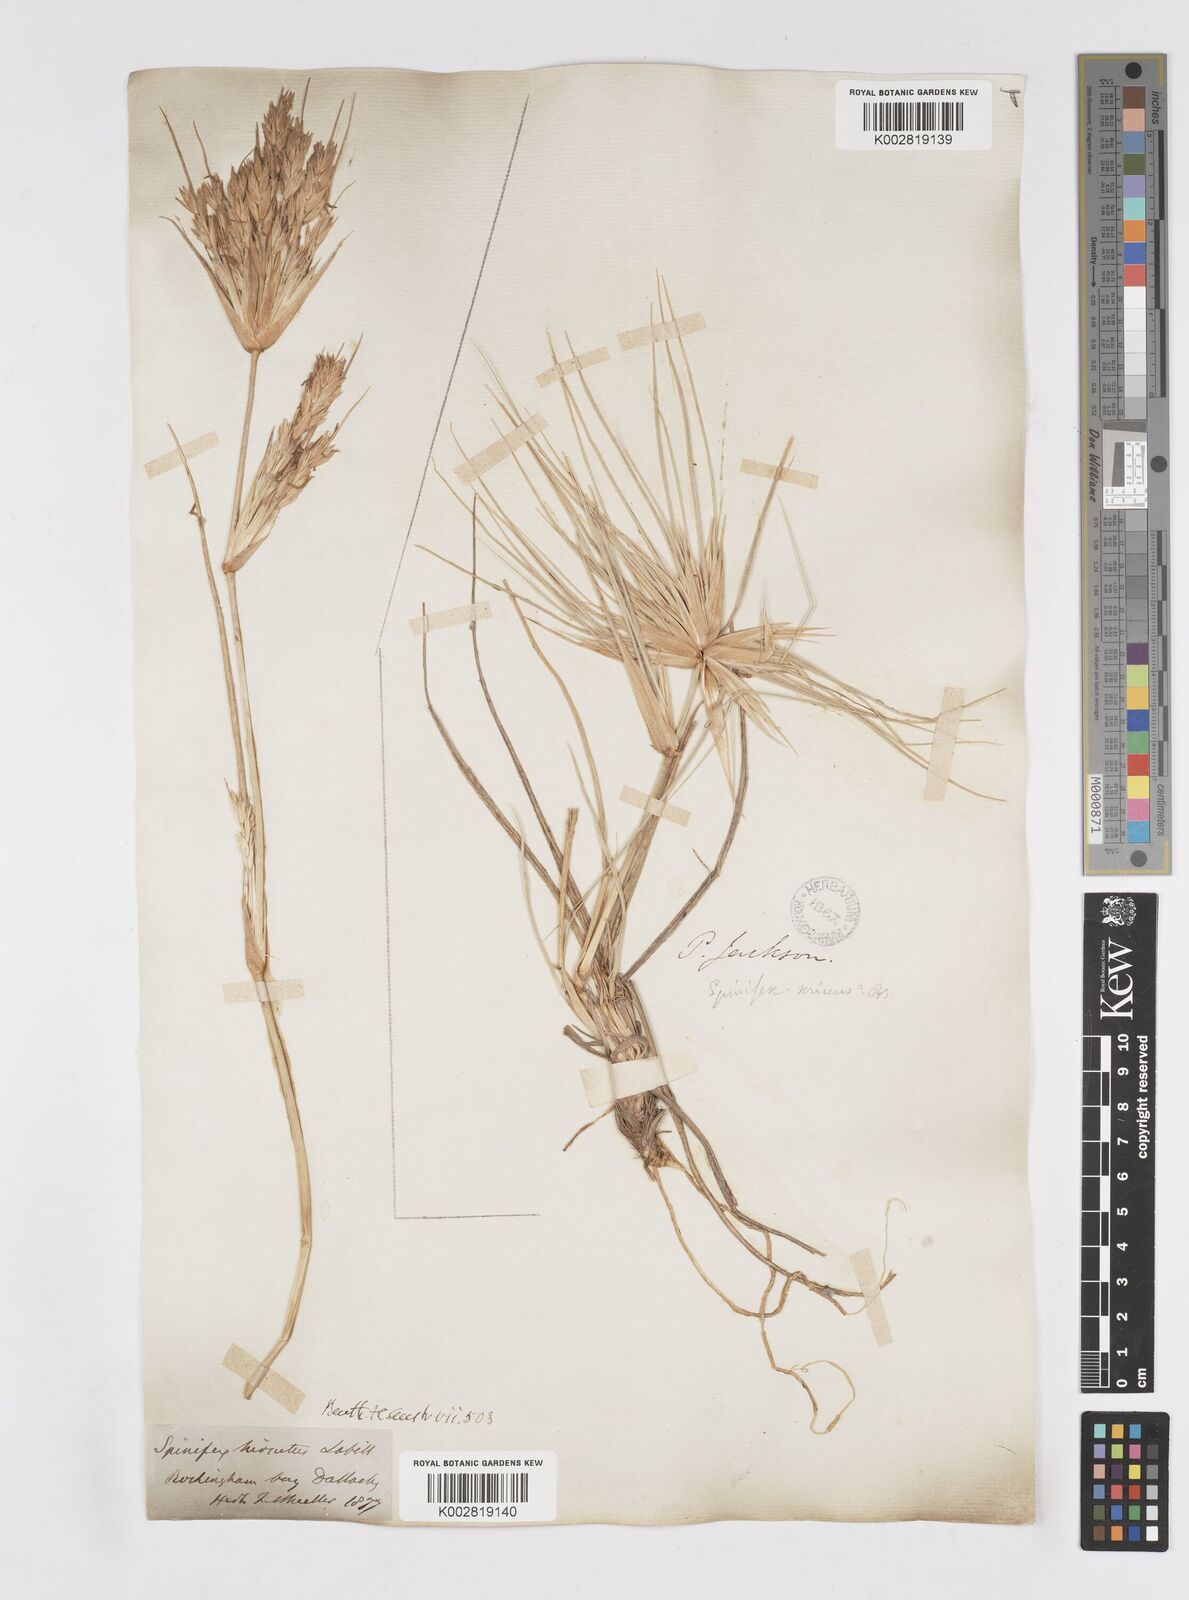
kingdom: Plantae
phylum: Tracheophyta
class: Liliopsida
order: Poales
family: Poaceae
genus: Spinifex
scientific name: Spinifex hirsutus
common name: Hairy spinifex
